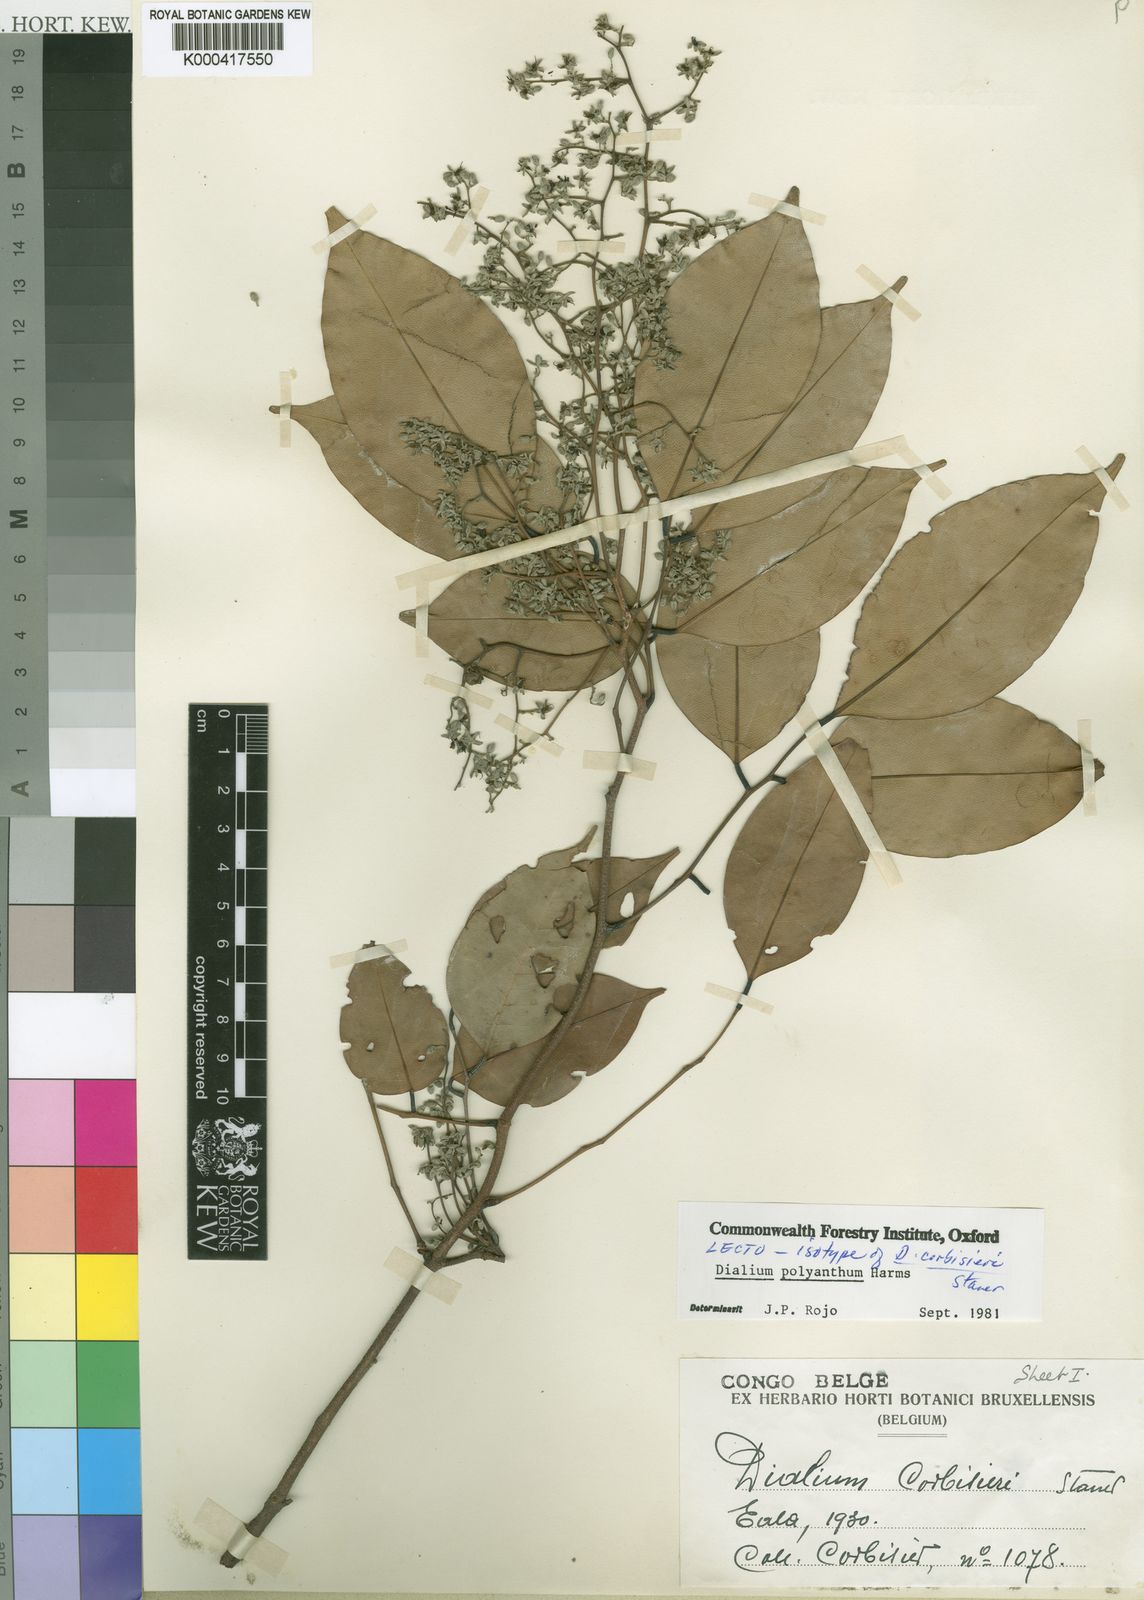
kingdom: Plantae
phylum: Tracheophyta
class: Magnoliopsida
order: Fabales
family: Fabaceae
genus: Dialium
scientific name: Dialium
